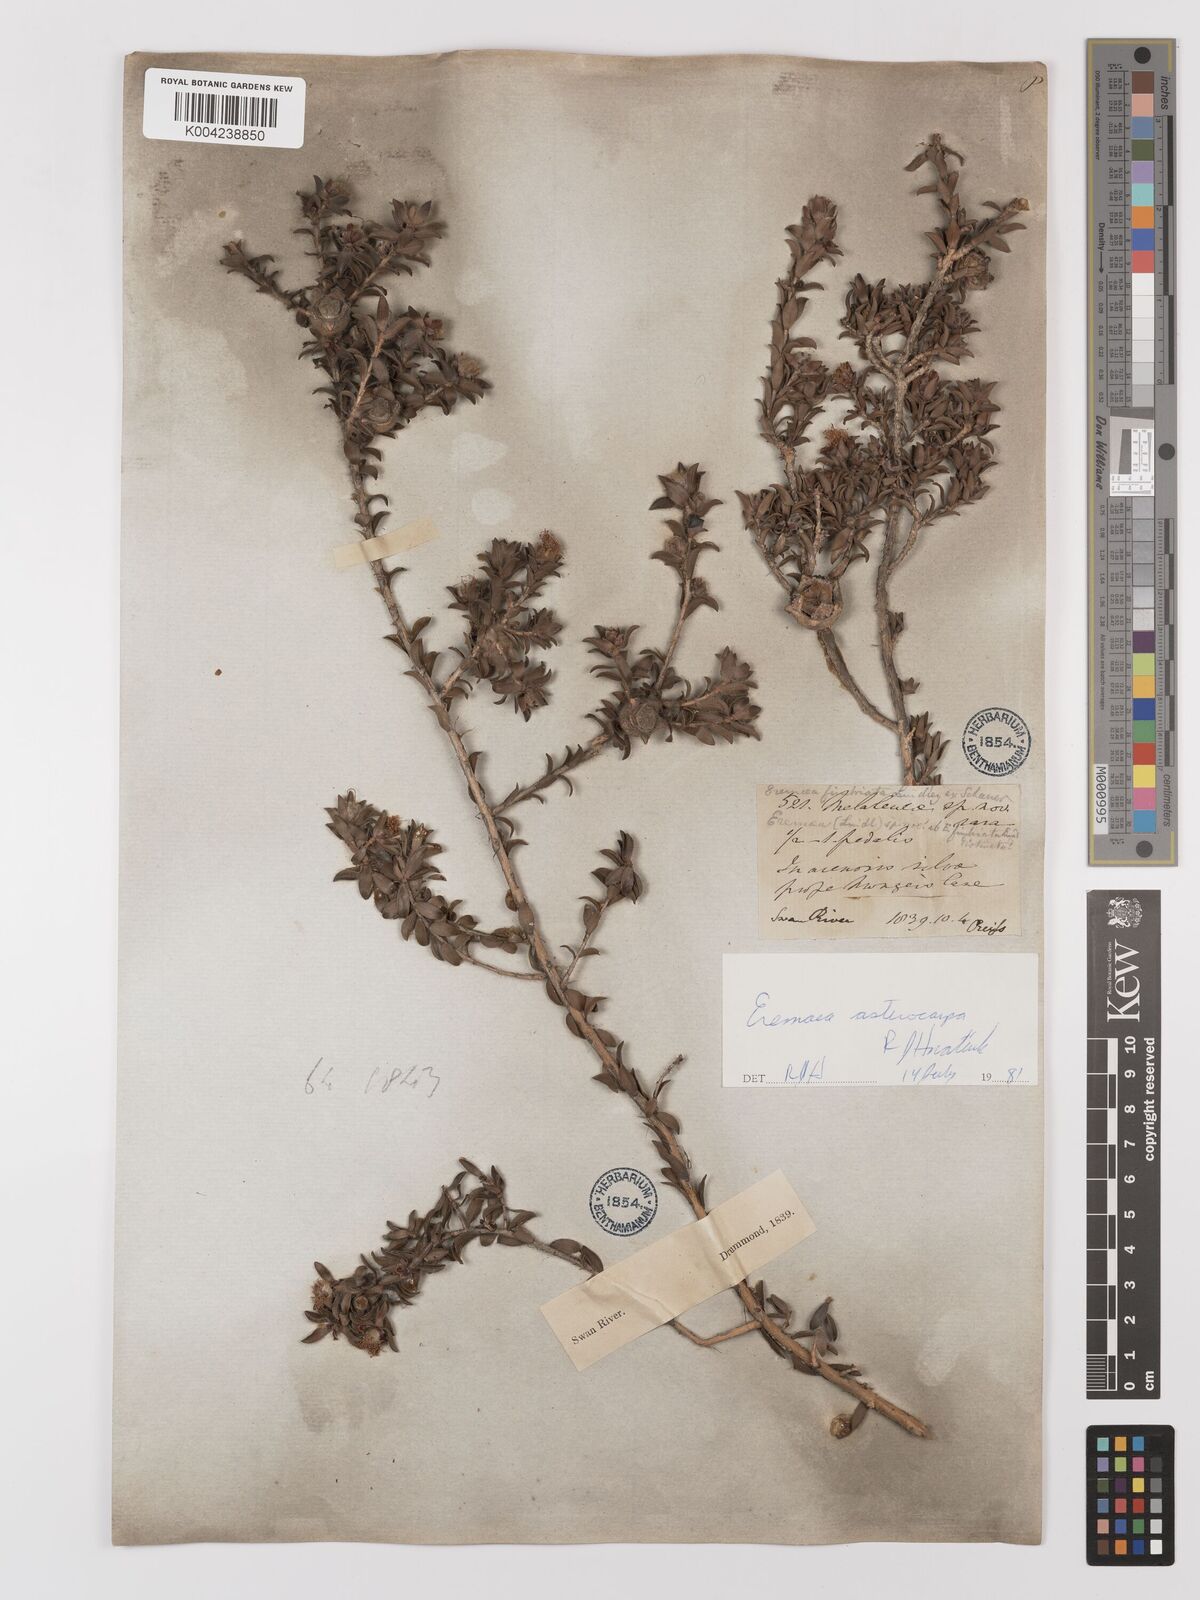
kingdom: Plantae
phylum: Tracheophyta
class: Magnoliopsida
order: Myrtales
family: Myrtaceae
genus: Melaleuca
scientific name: Melaleuca asterocarpa
